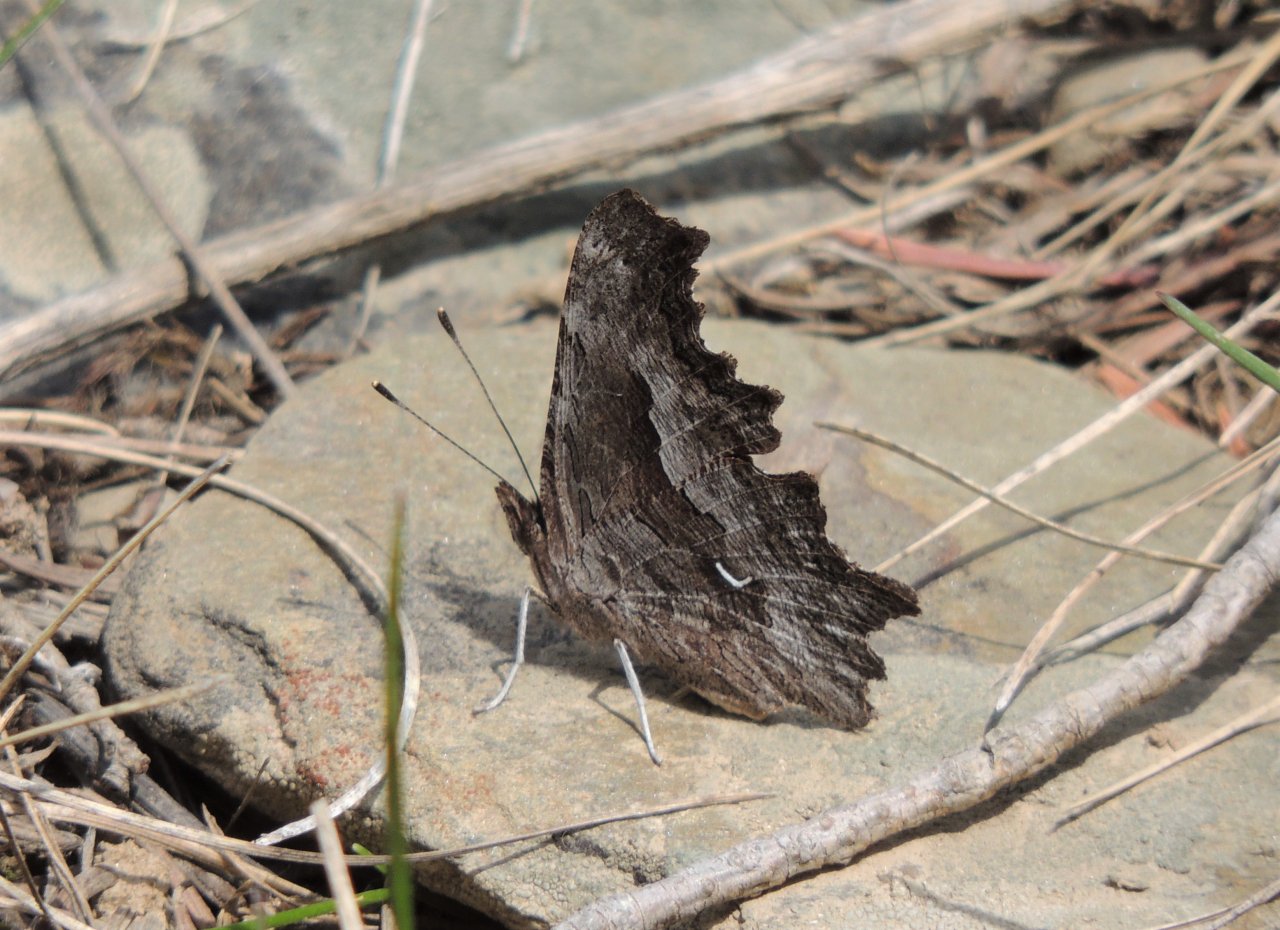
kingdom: Animalia
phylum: Arthropoda
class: Insecta
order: Lepidoptera
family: Nymphalidae
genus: Polygonia
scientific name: Polygonia gracilis
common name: Hoary Comma
